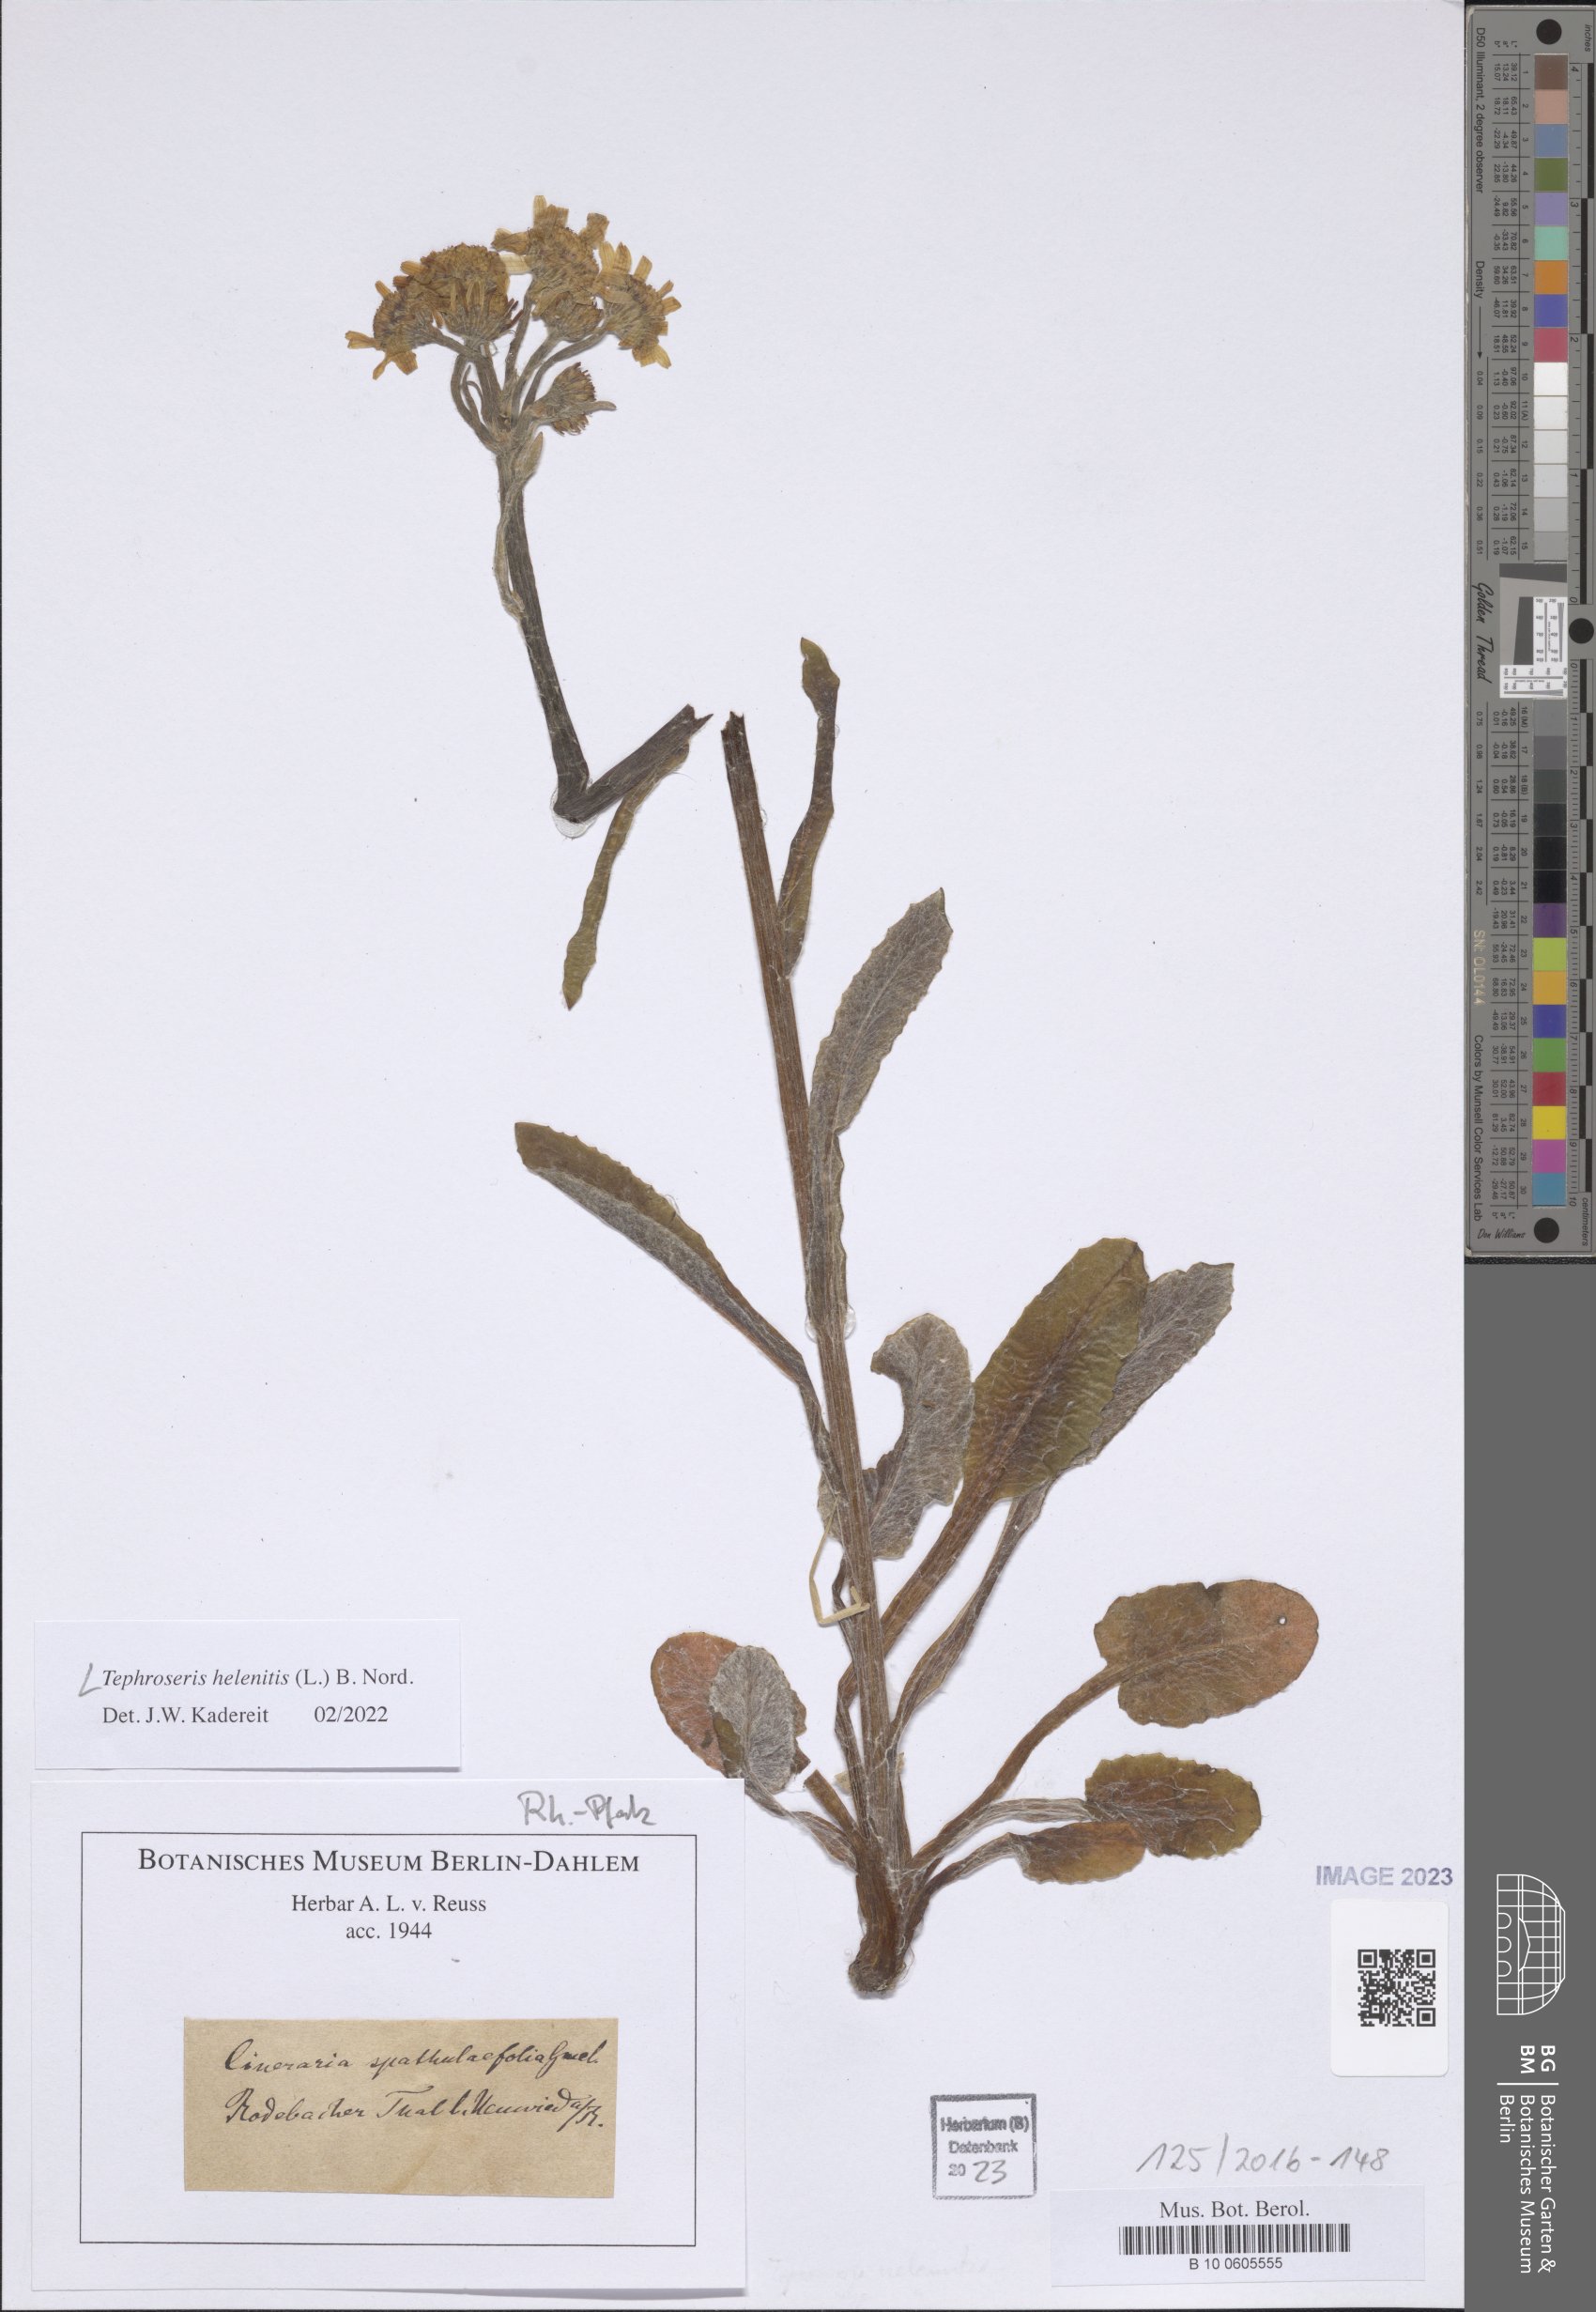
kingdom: Plantae
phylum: Tracheophyta
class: Magnoliopsida
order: Asterales
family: Asteraceae
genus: Tephroseris
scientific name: Tephroseris helenitis
